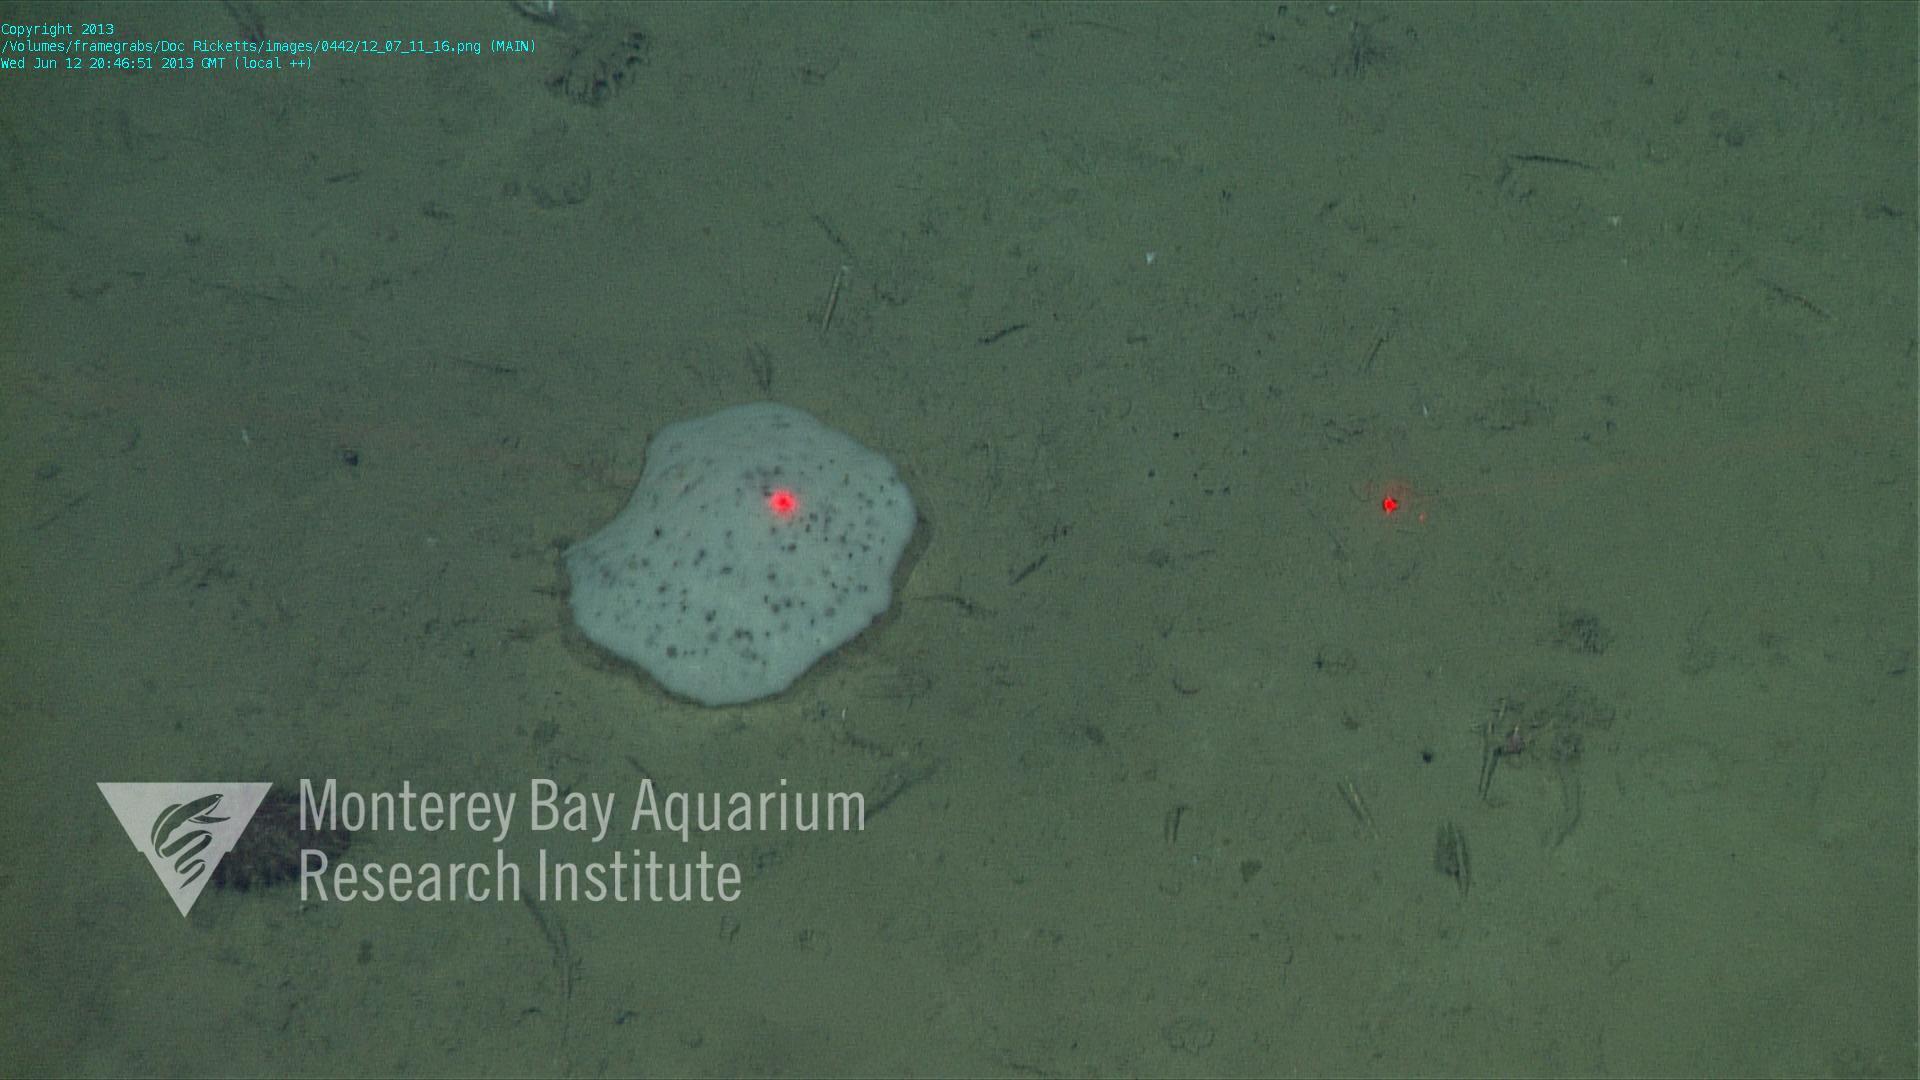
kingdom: Animalia
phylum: Porifera
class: Hexactinellida
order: Lyssacinosida
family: Euplectellidae
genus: Docosaccus
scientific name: Docosaccus maculatus
